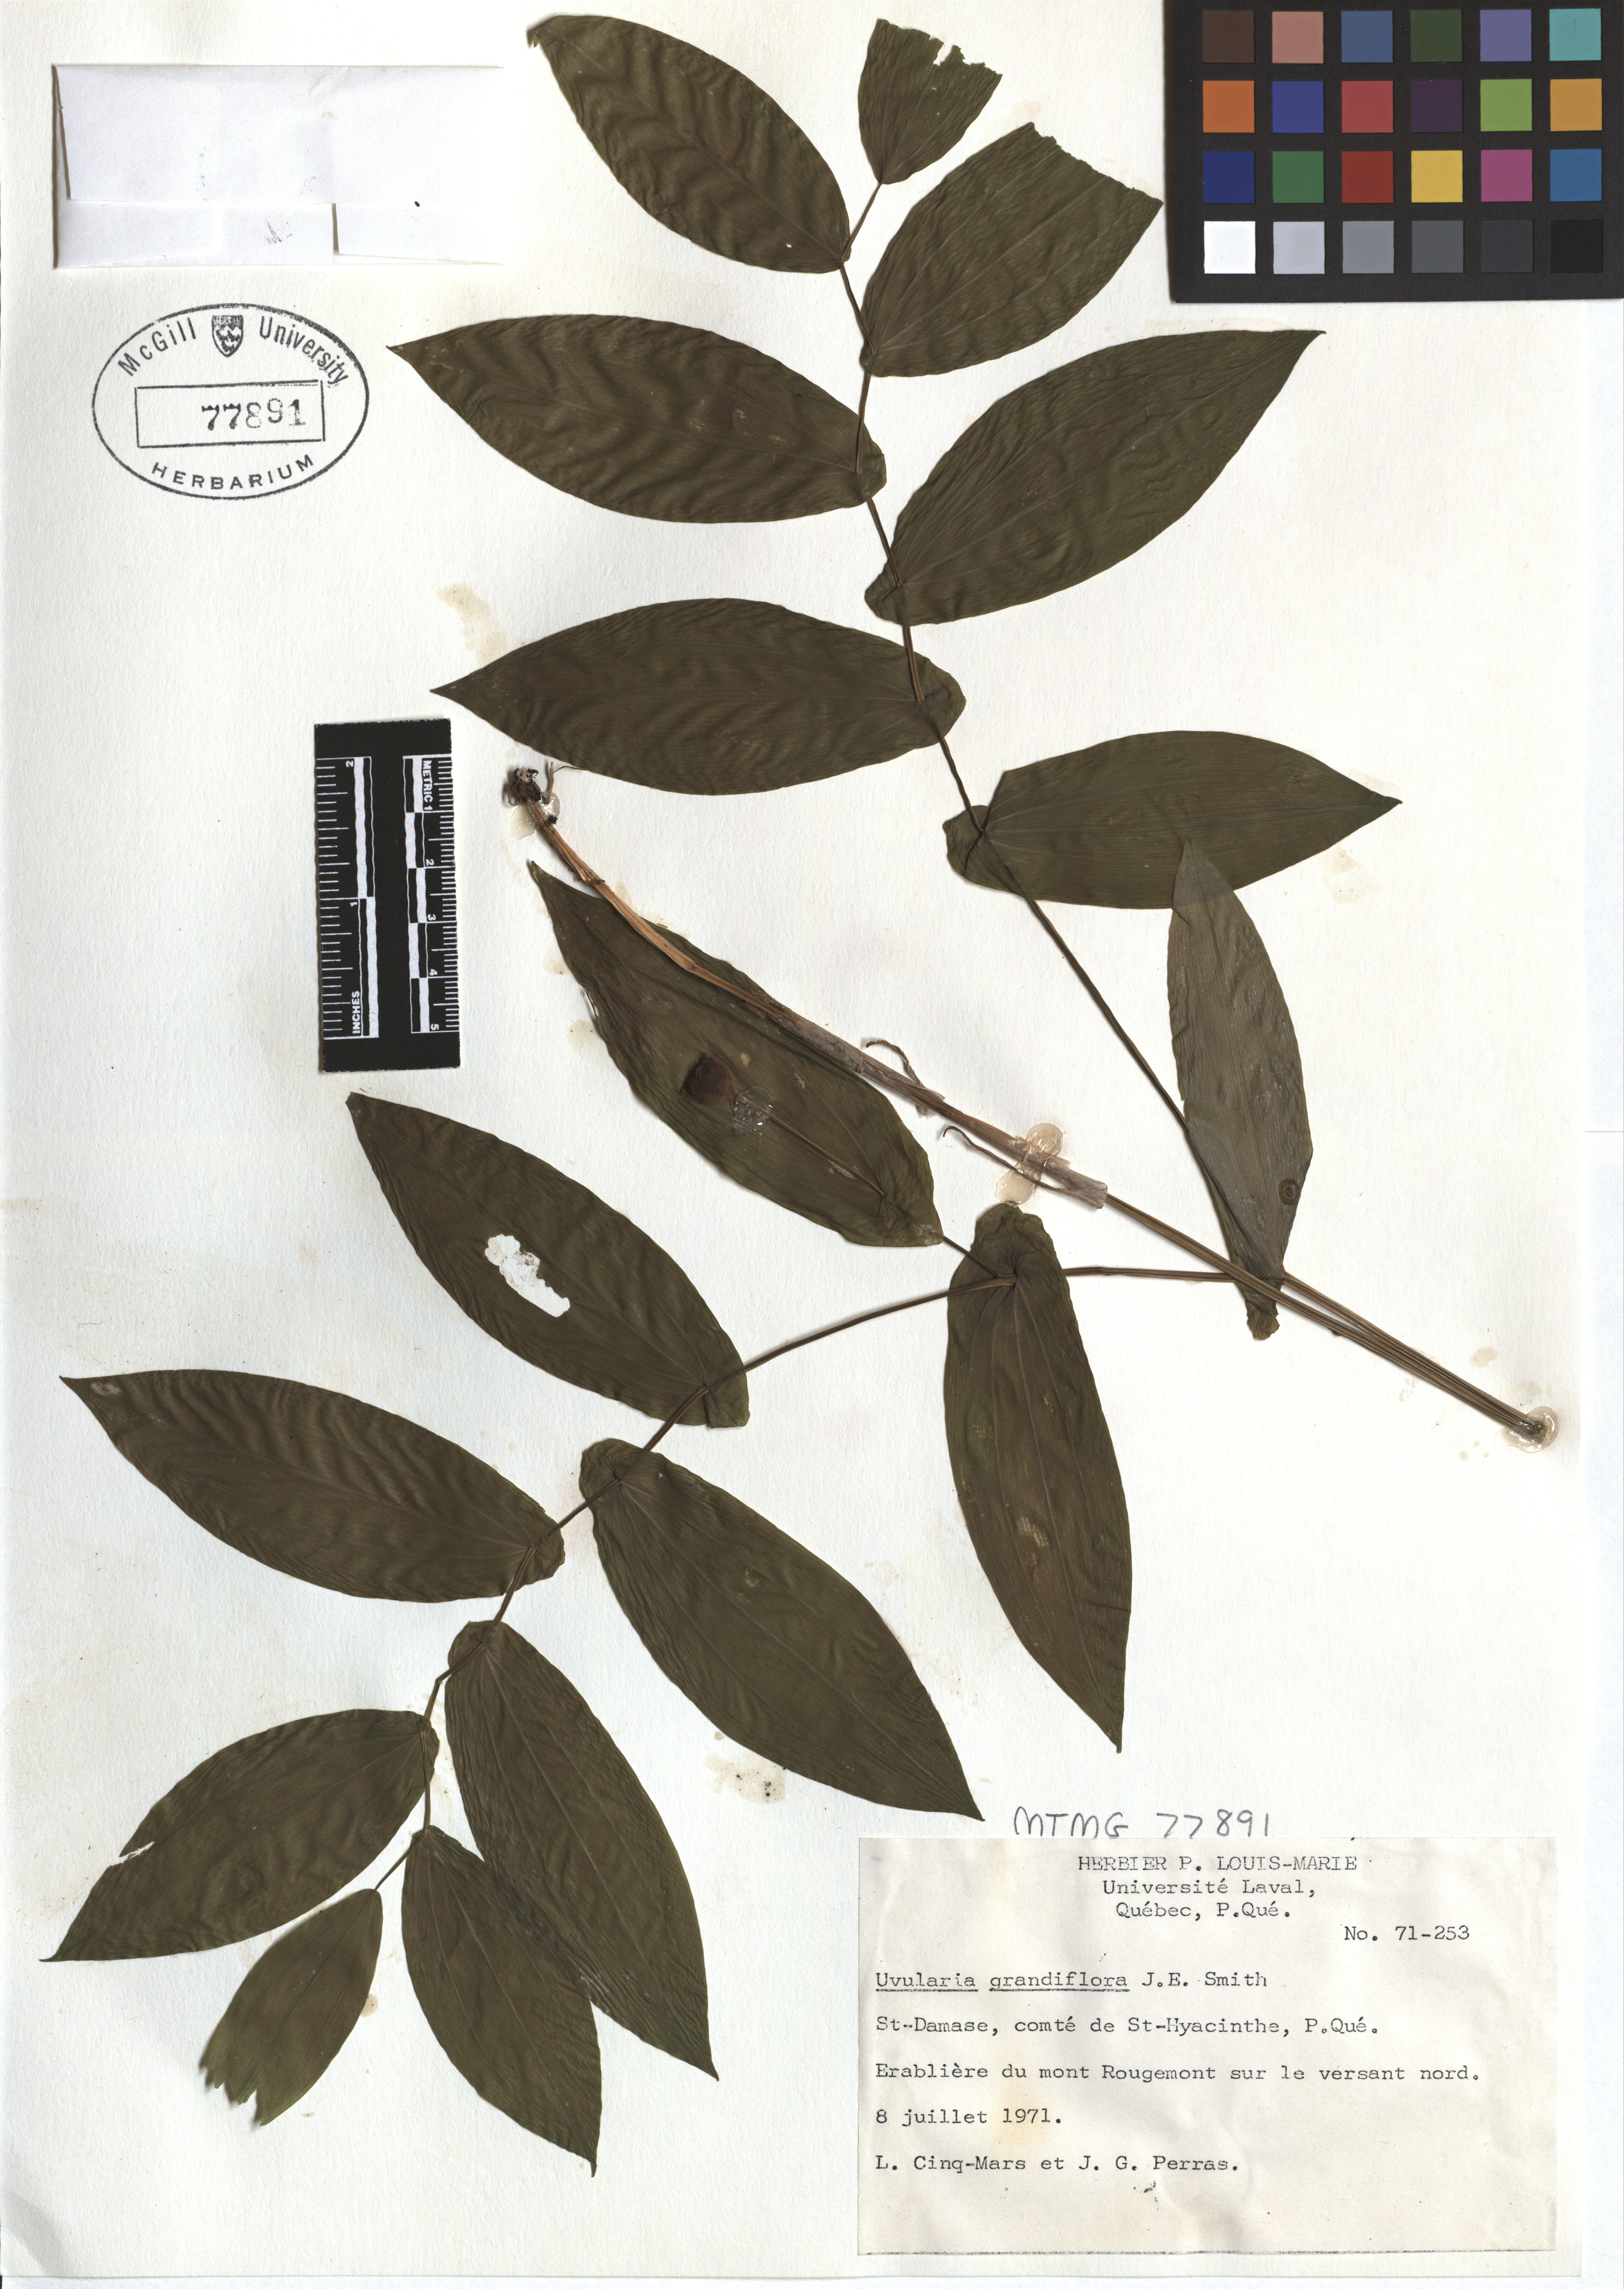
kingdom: Plantae
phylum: Tracheophyta
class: Liliopsida
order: Liliales
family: Colchicaceae
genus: Uvularia
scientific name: Uvularia grandiflora
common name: Bellwort
